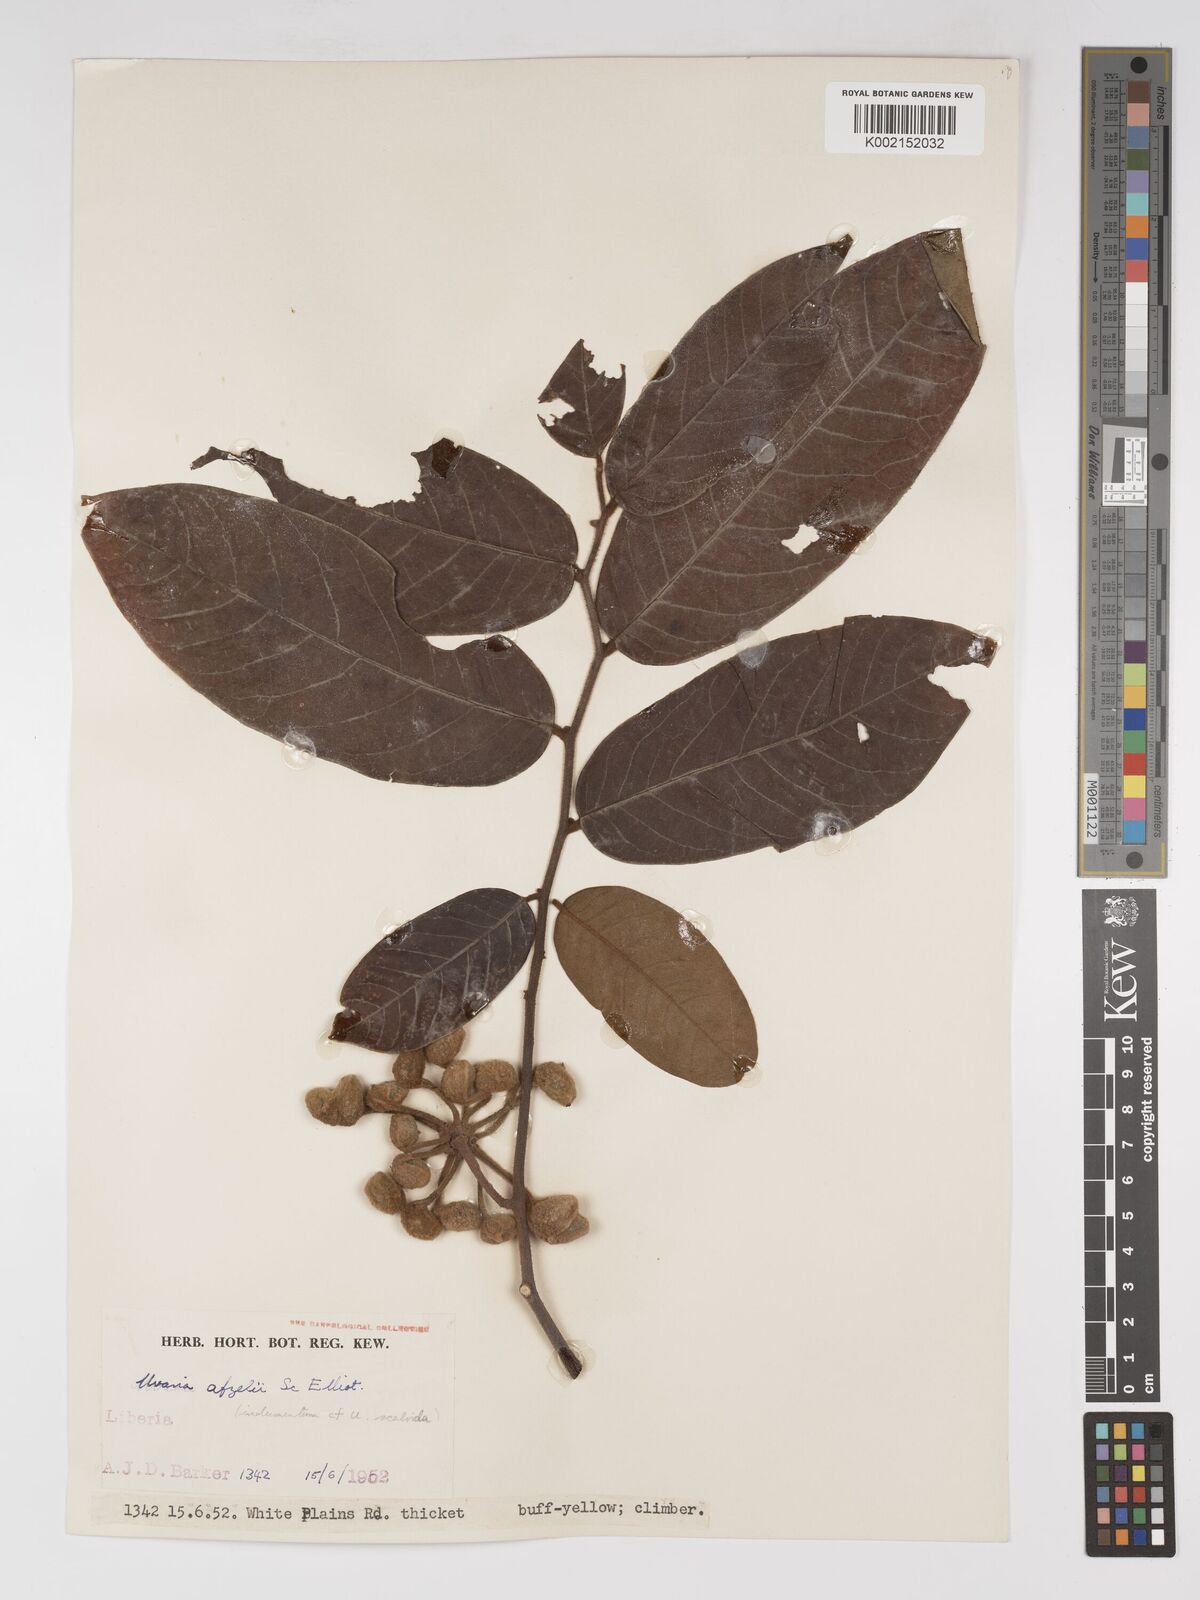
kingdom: Plantae
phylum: Tracheophyta
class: Magnoliopsida
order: Magnoliales
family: Annonaceae
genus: Uvaria
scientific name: Uvaria afzelii
